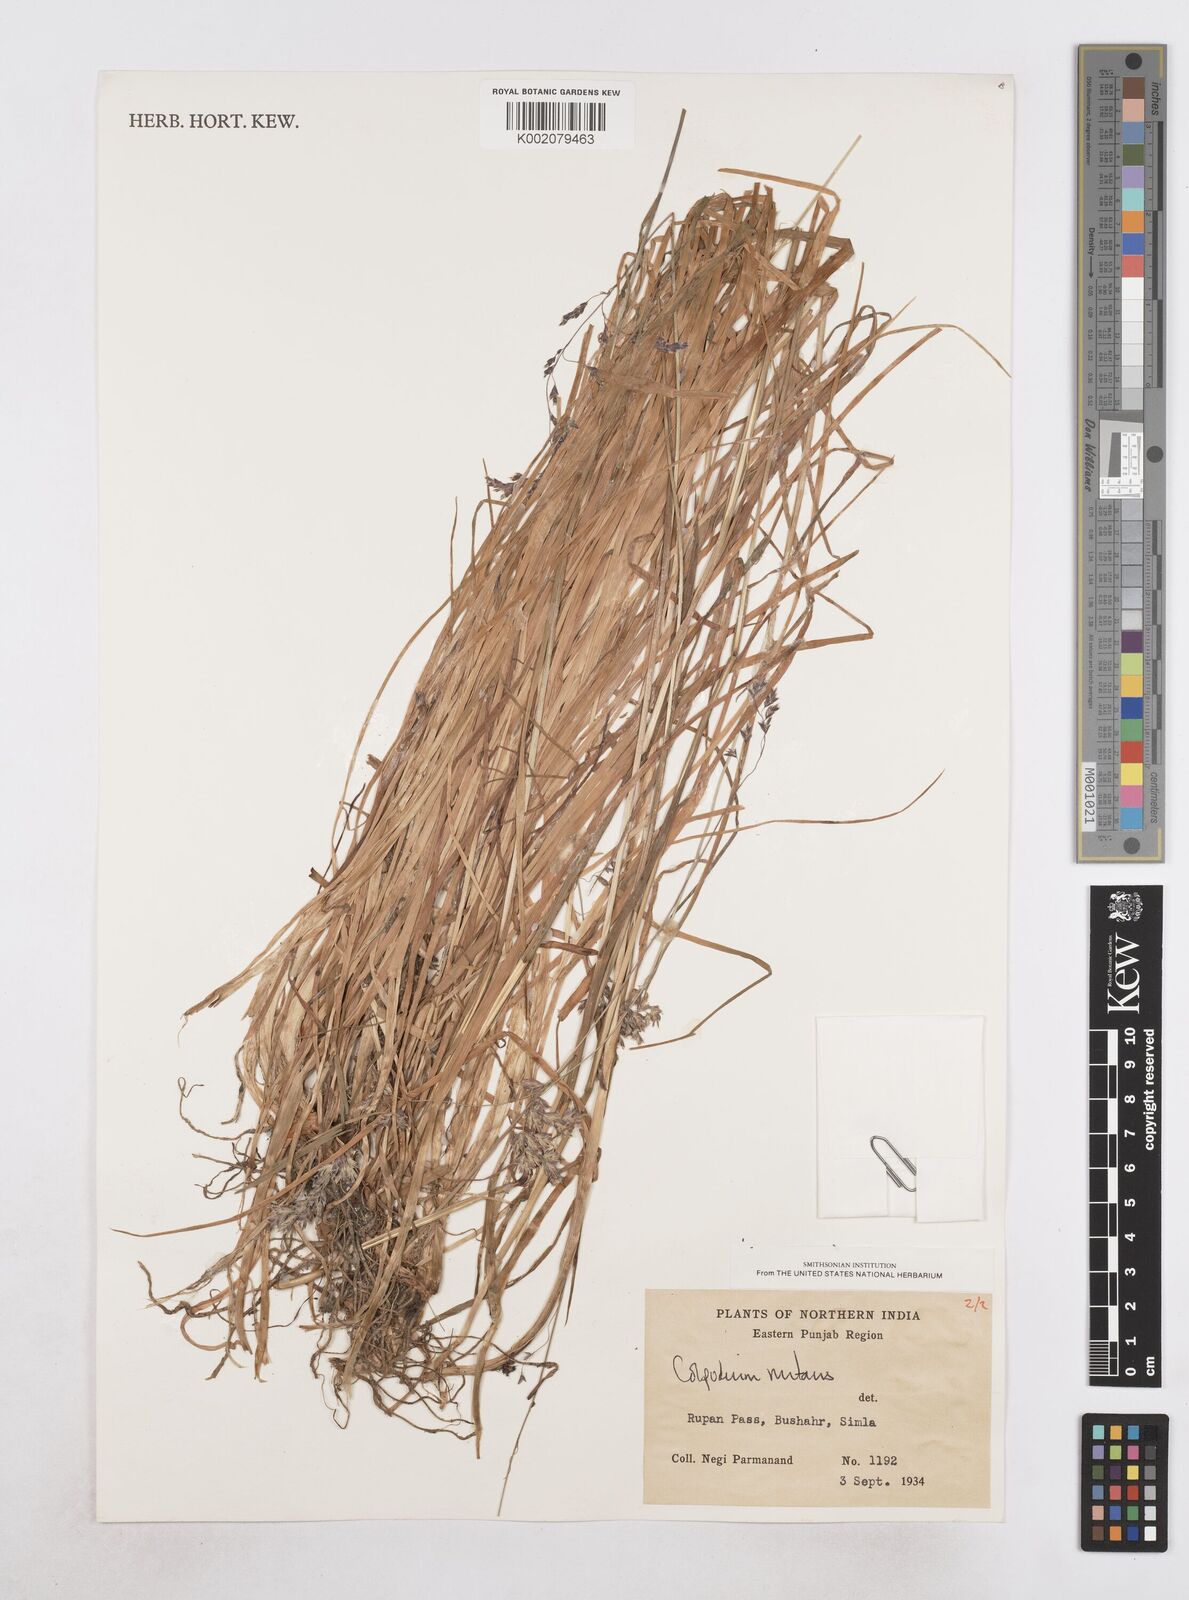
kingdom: Plantae
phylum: Tracheophyta
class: Liliopsida
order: Poales
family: Poaceae
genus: Hyalopoa
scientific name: Hyalopoa nutans
